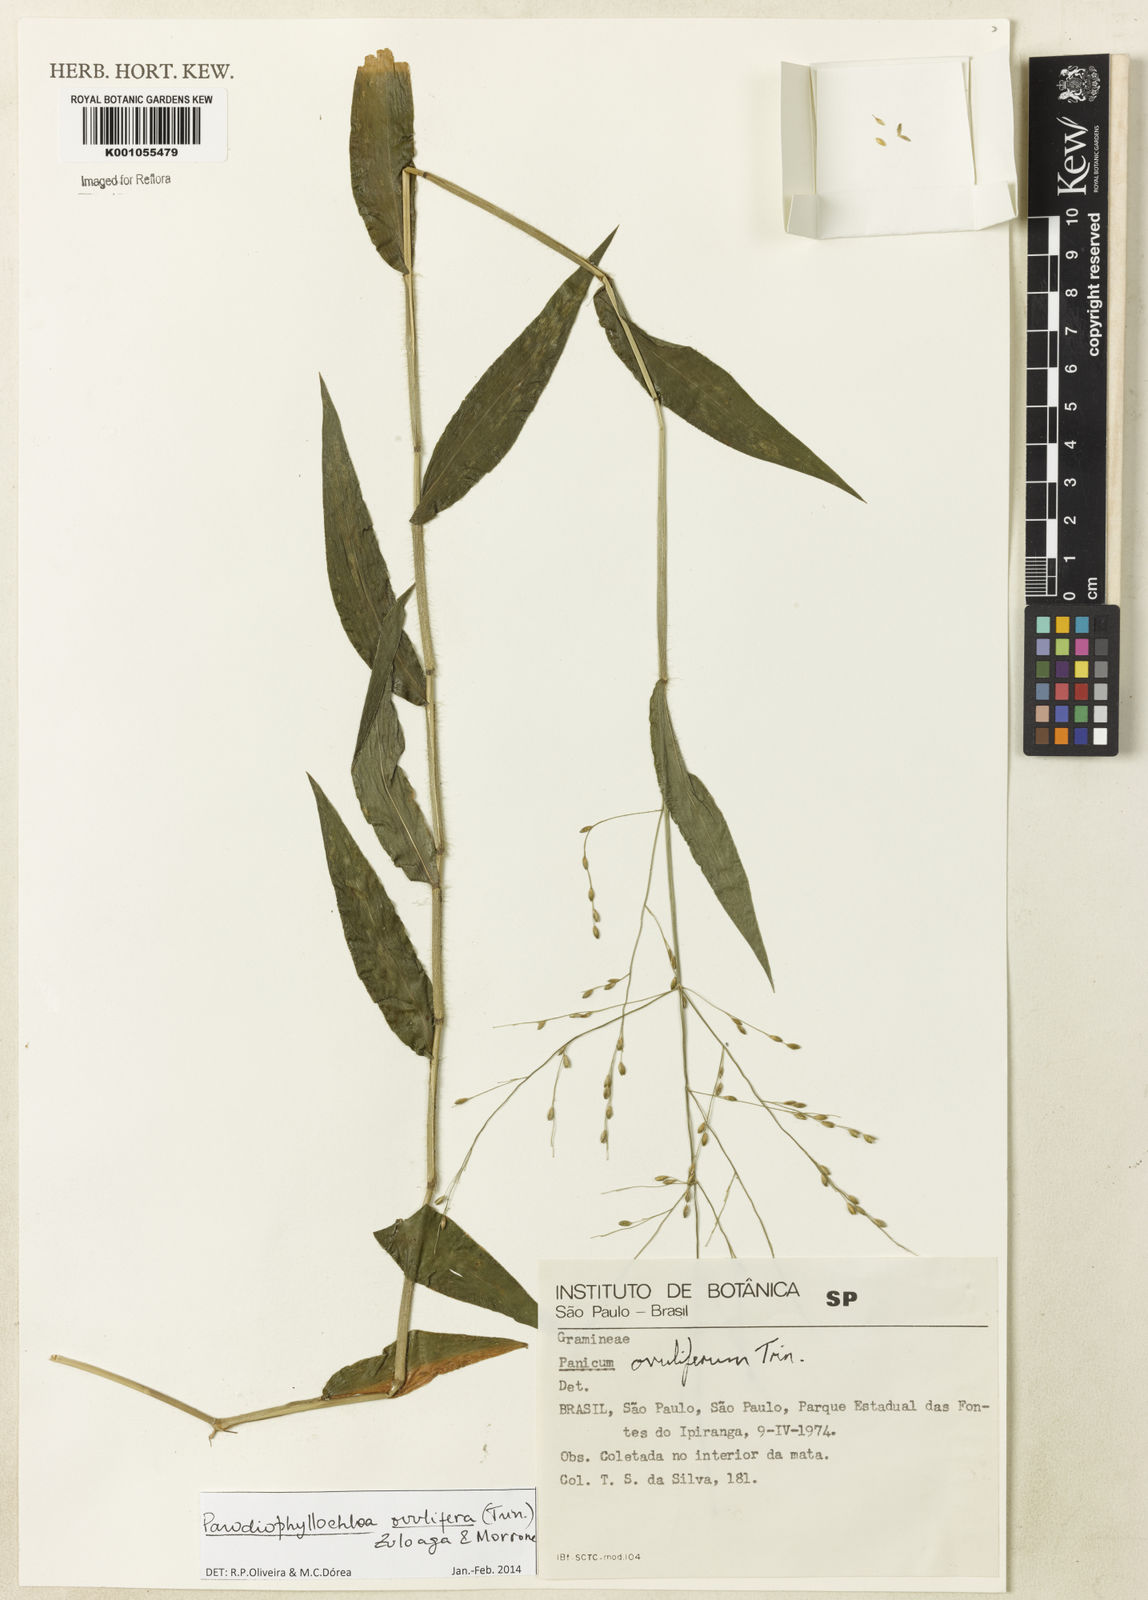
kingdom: Plantae
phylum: Tracheophyta
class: Liliopsida
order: Poales
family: Poaceae
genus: Parodiophyllochloa
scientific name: Parodiophyllochloa ovulifera
